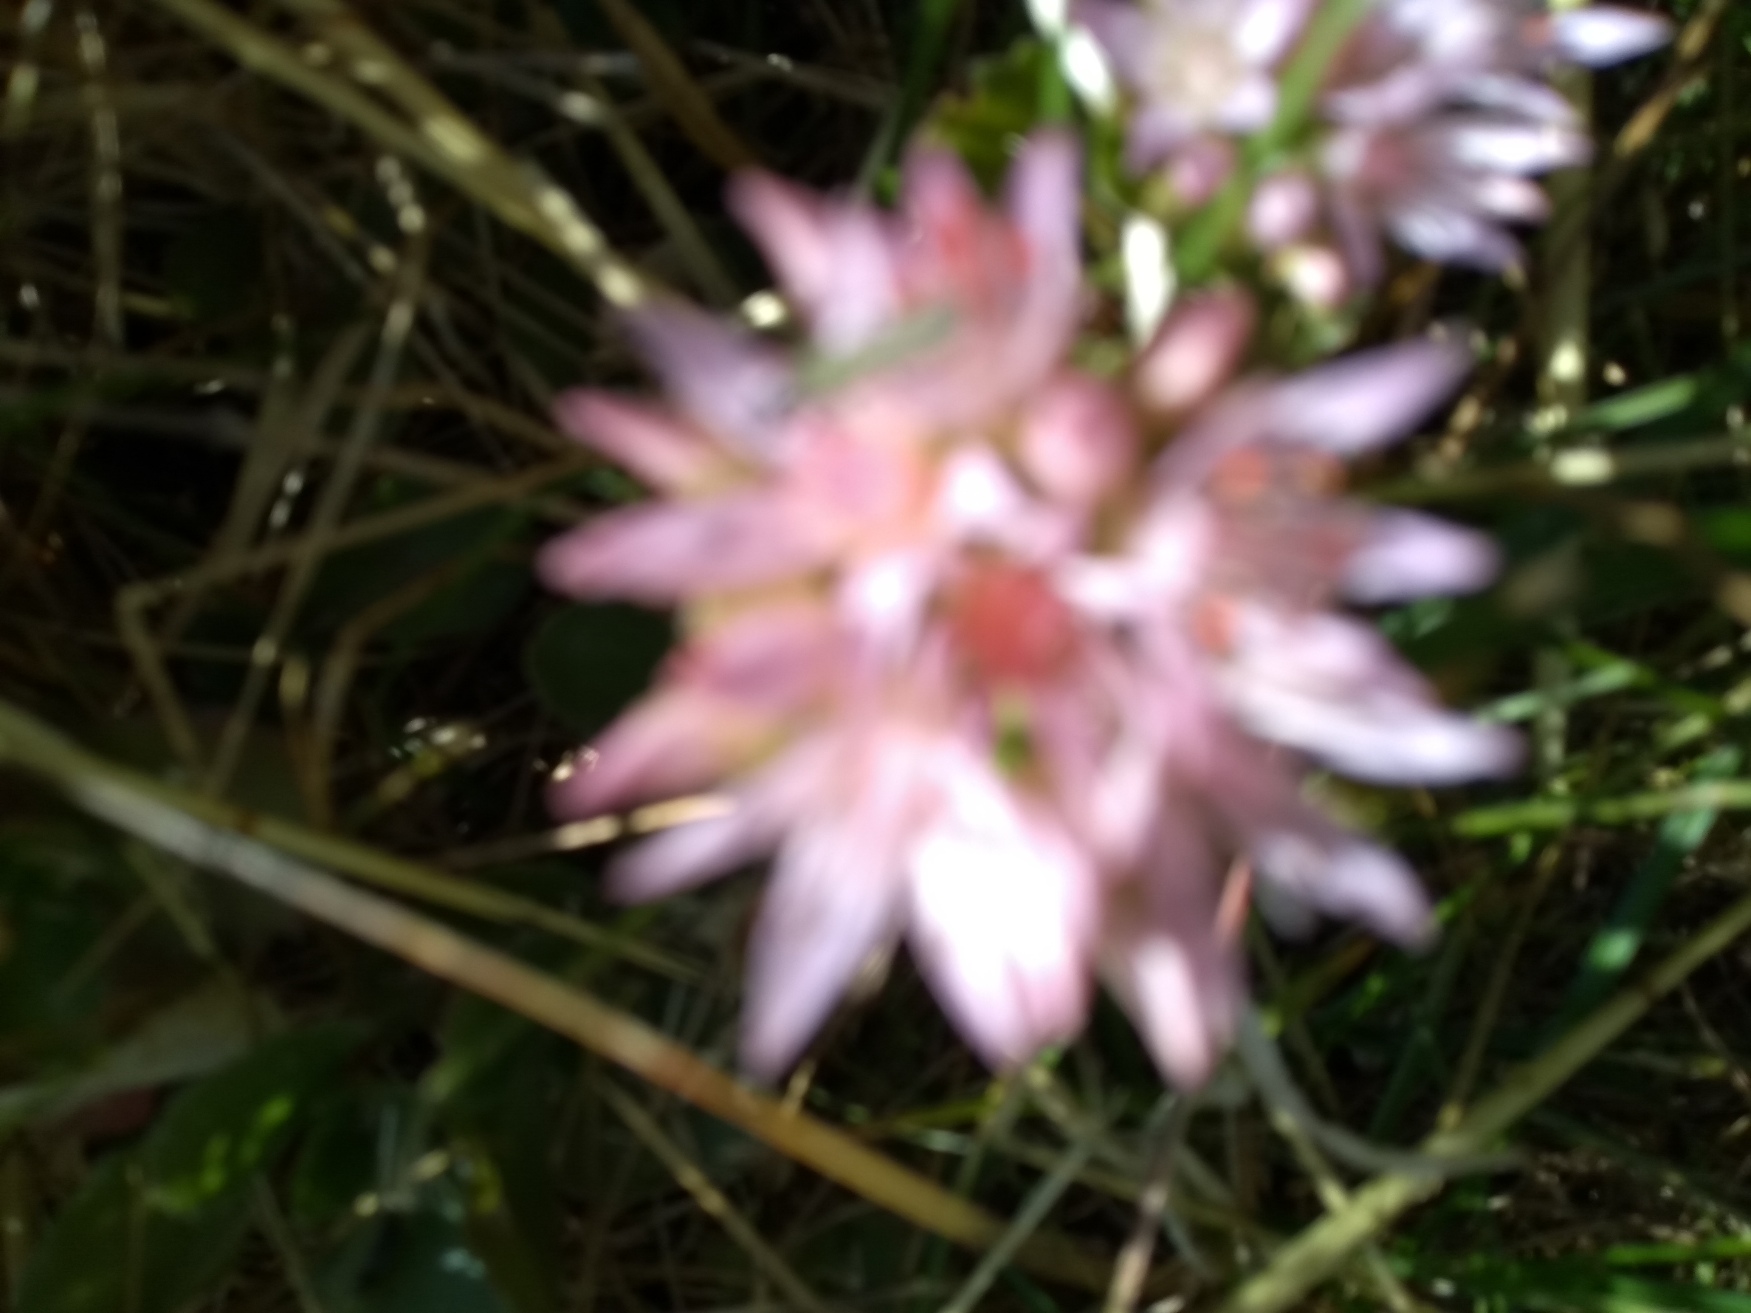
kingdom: Plantae
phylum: Tracheophyta
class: Magnoliopsida
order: Saxifragales
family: Crassulaceae
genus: Phedimus
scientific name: Phedimus spurius
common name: Rød stenurt
